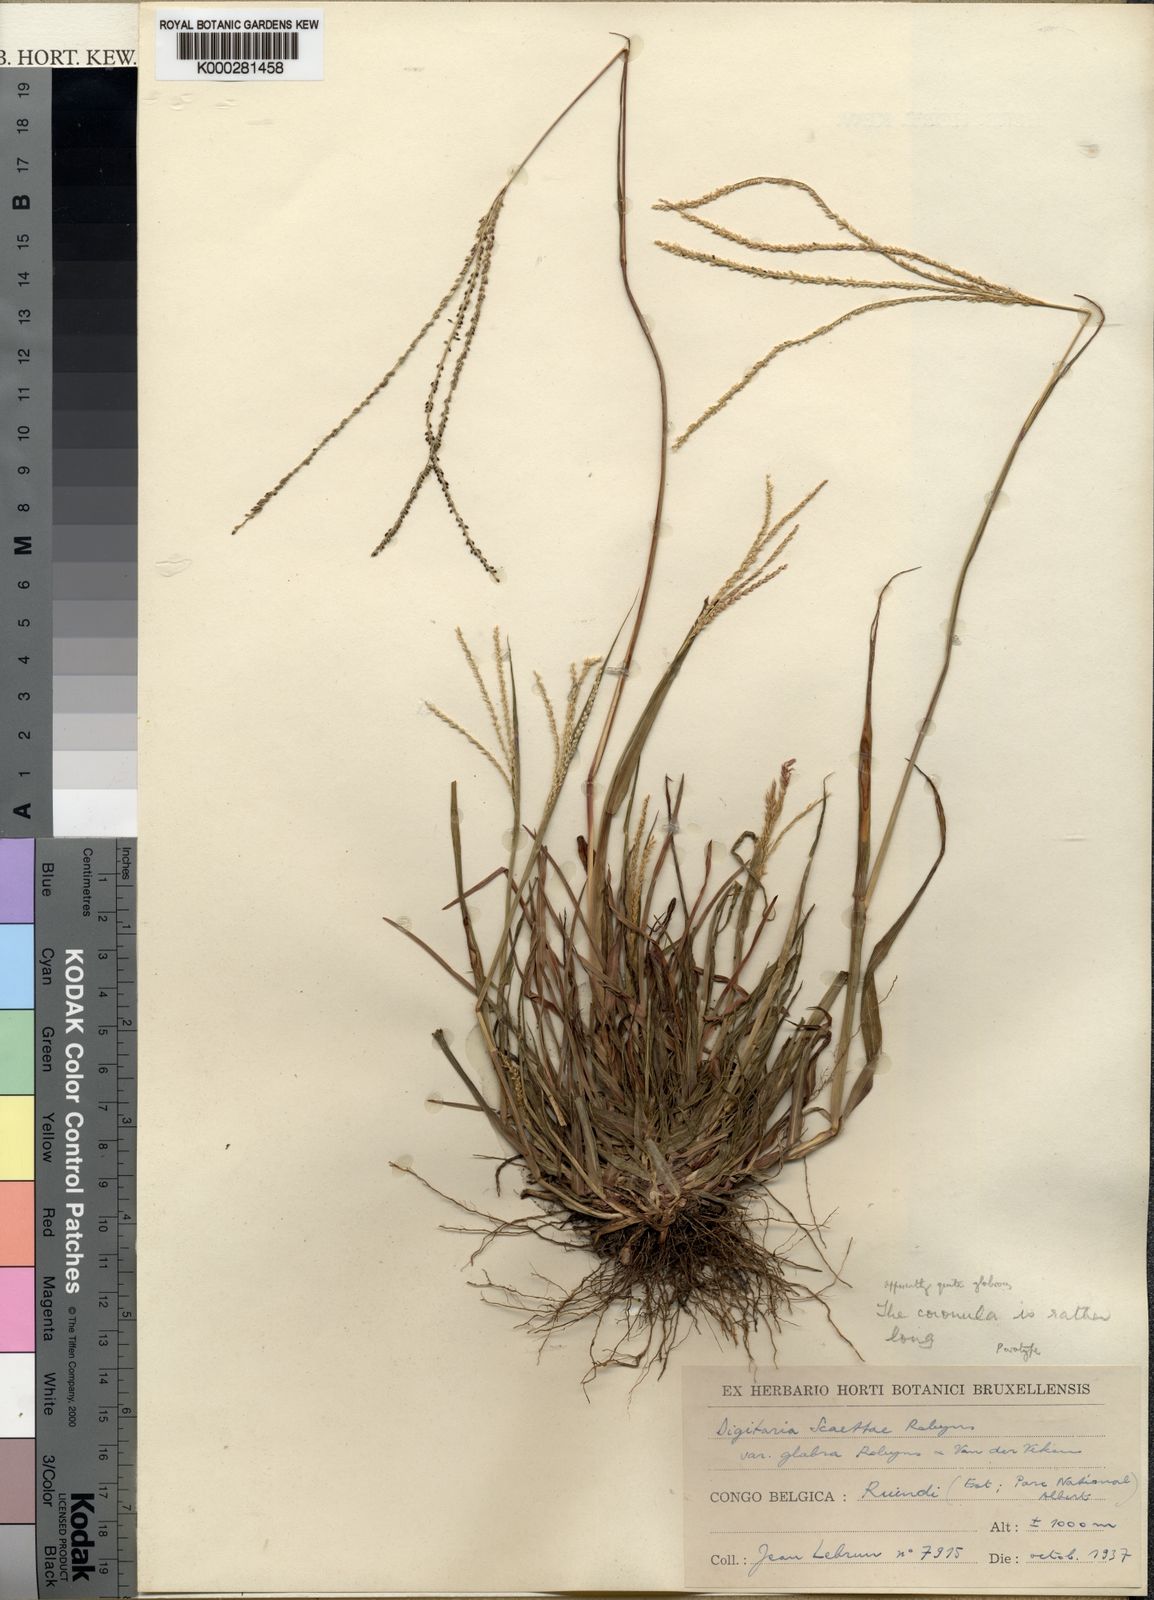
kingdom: Plantae
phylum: Tracheophyta
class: Liliopsida
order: Poales
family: Poaceae
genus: Digitaria
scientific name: Digitaria
